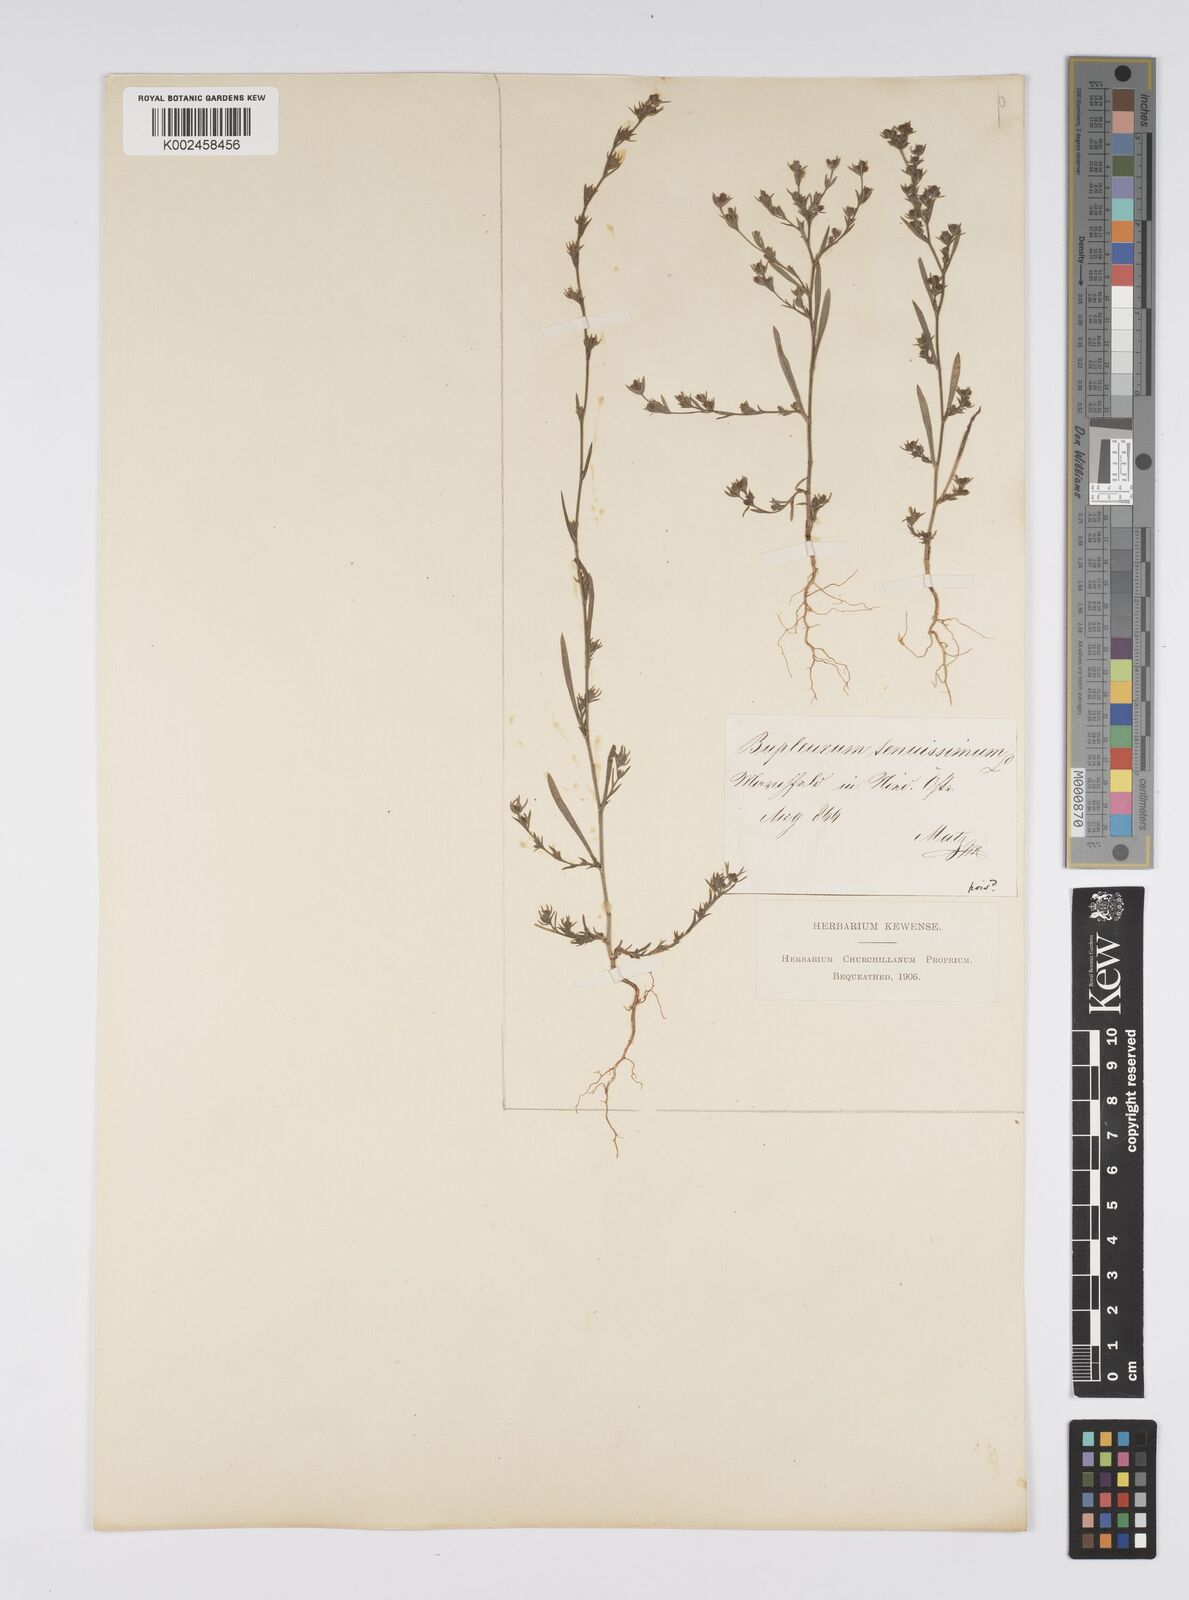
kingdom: Plantae
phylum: Tracheophyta
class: Magnoliopsida
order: Apiales
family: Apiaceae
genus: Bupleurum
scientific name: Bupleurum tenuissimum
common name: Slender hare's-ear
